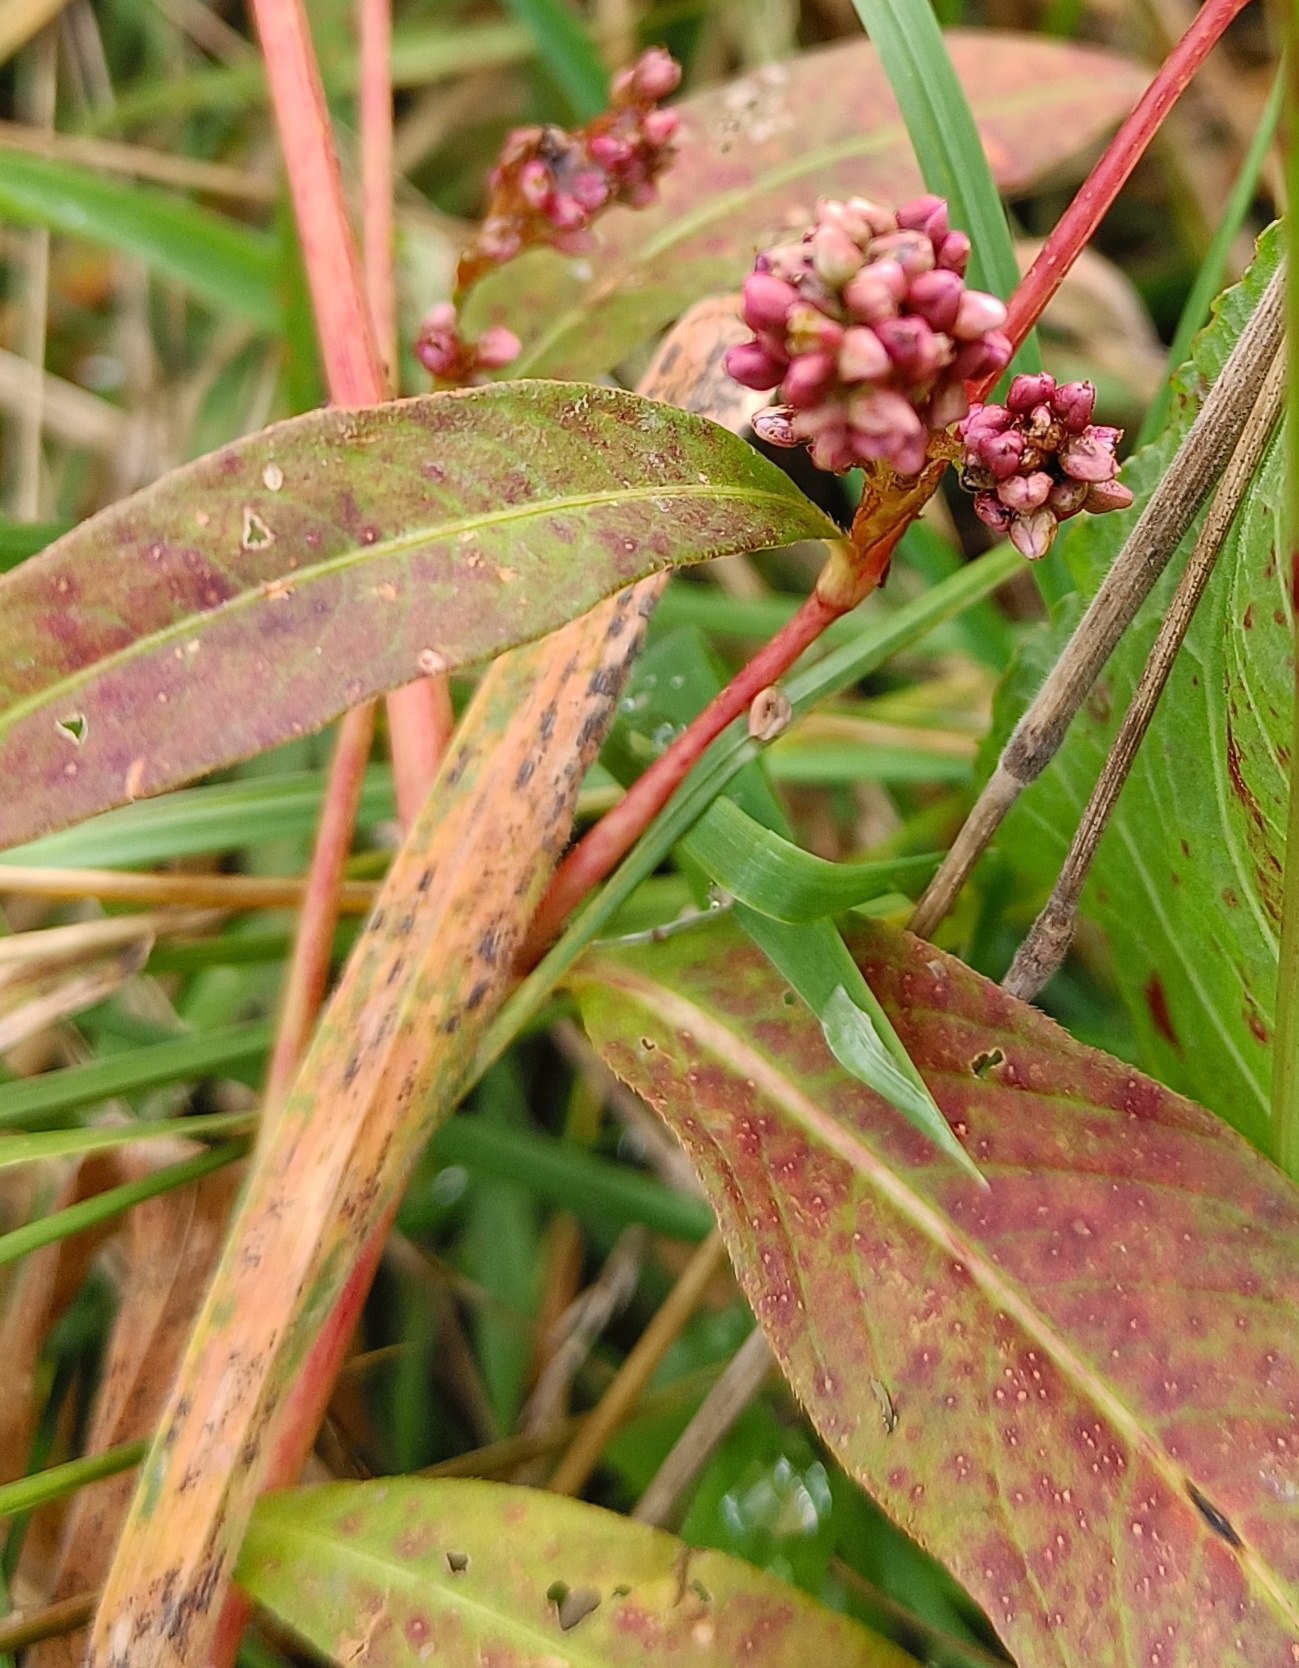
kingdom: Plantae
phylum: Tracheophyta
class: Magnoliopsida
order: Caryophyllales
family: Polygonaceae
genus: Persicaria
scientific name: Persicaria lapathifolia
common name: Knudet pileurt (underart)
